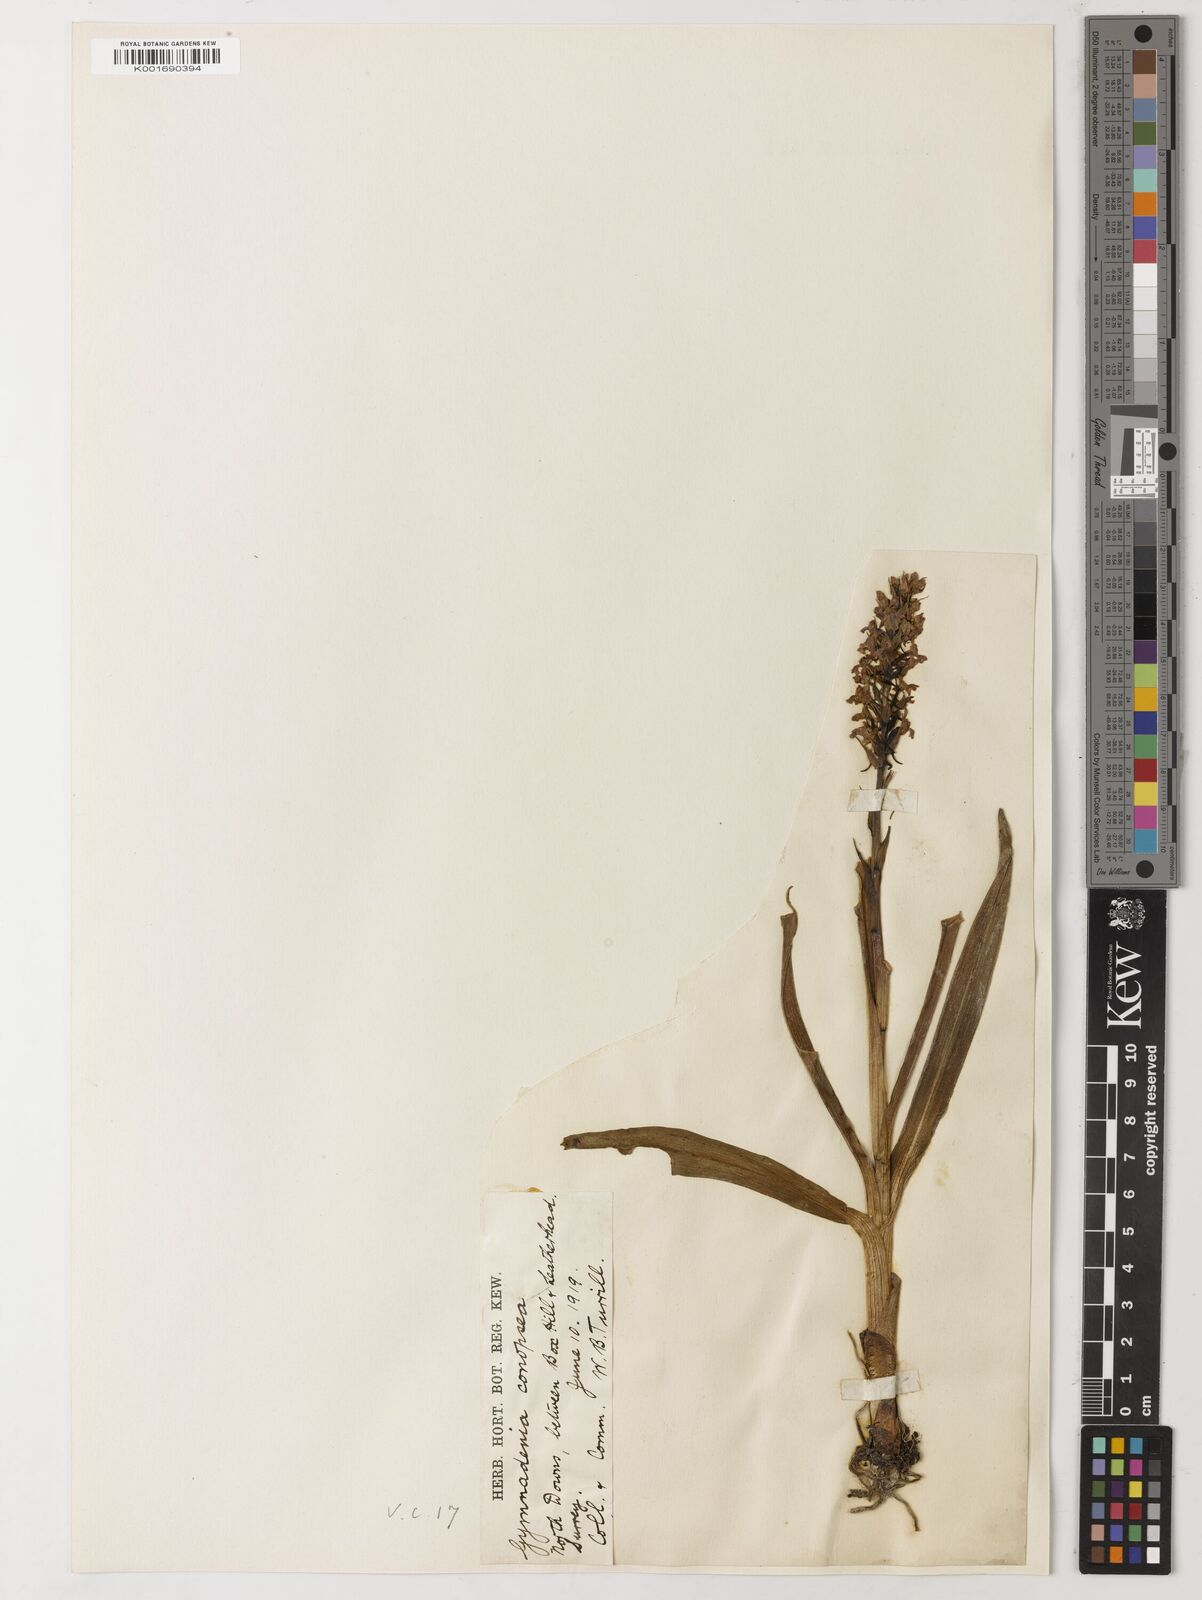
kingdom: Plantae
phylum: Tracheophyta
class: Magnoliopsida
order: Fabales
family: Fabaceae
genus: Angylocalyx
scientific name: Angylocalyx braunii
